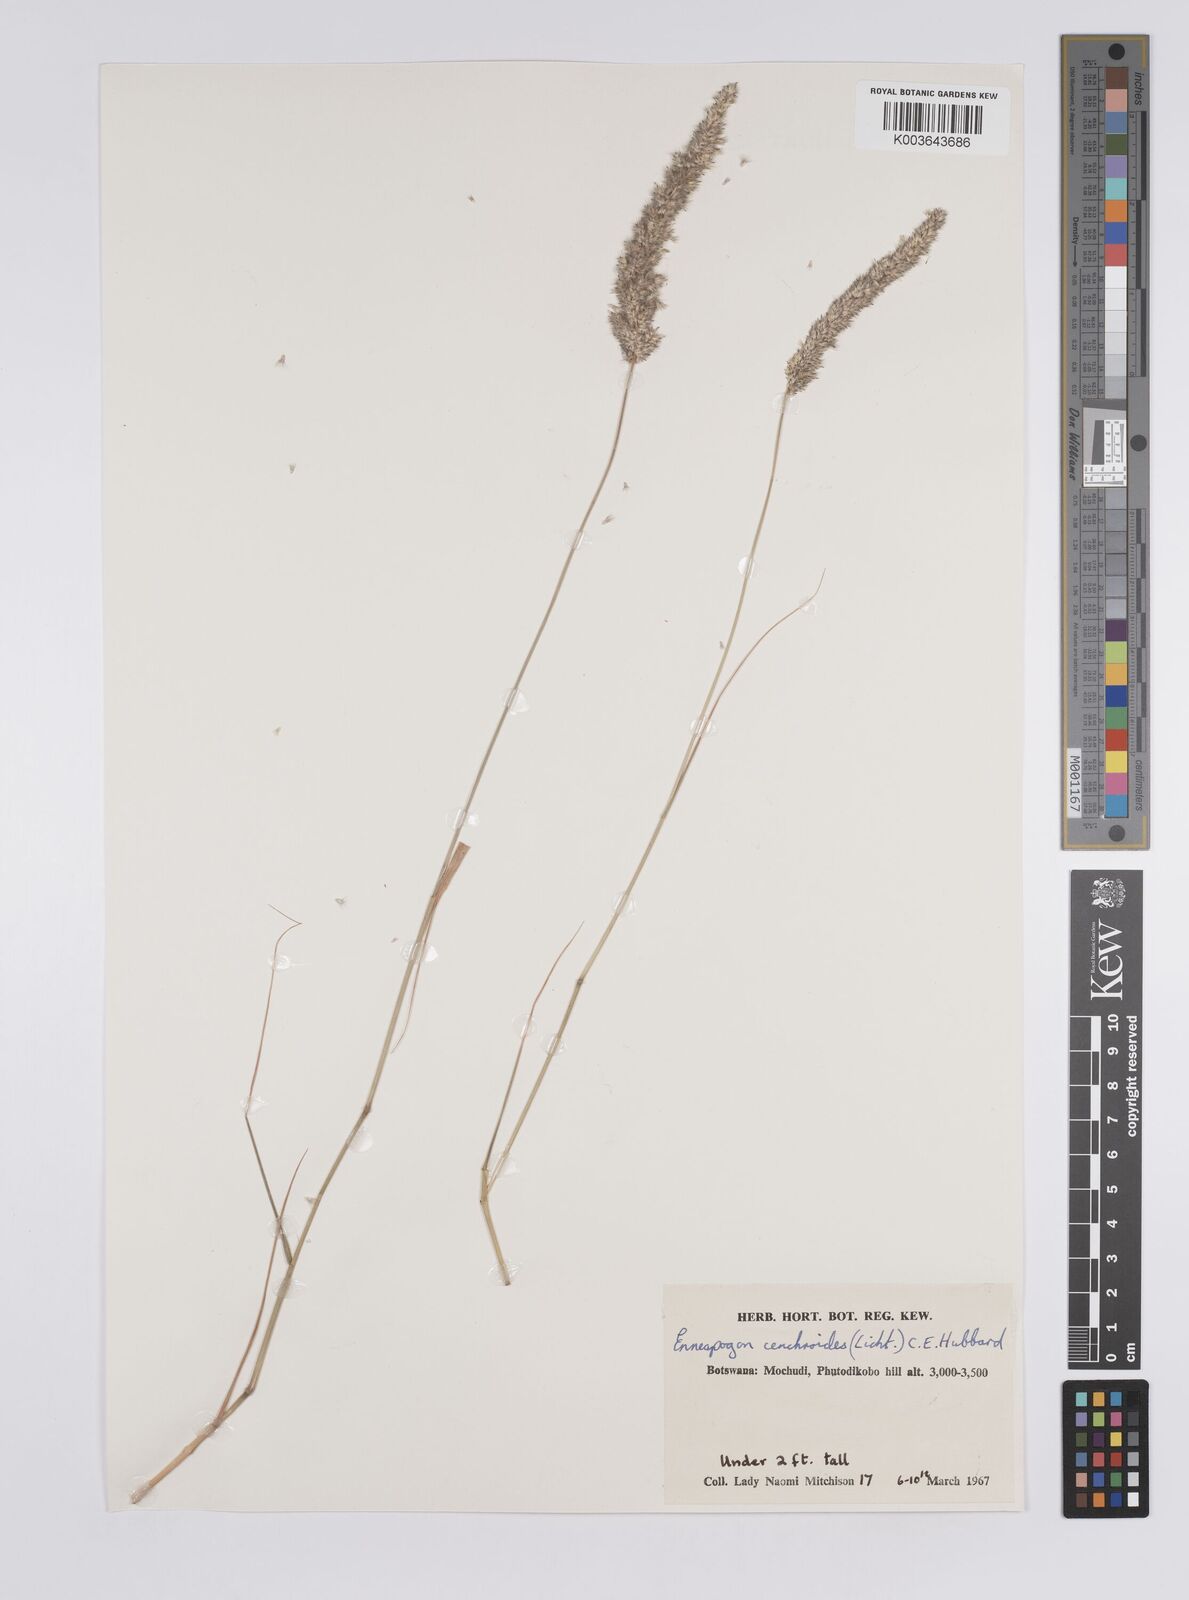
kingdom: Plantae
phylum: Tracheophyta
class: Liliopsida
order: Poales
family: Poaceae
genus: Enneapogon
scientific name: Enneapogon cenchroides
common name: Soft feather pappusgrass
